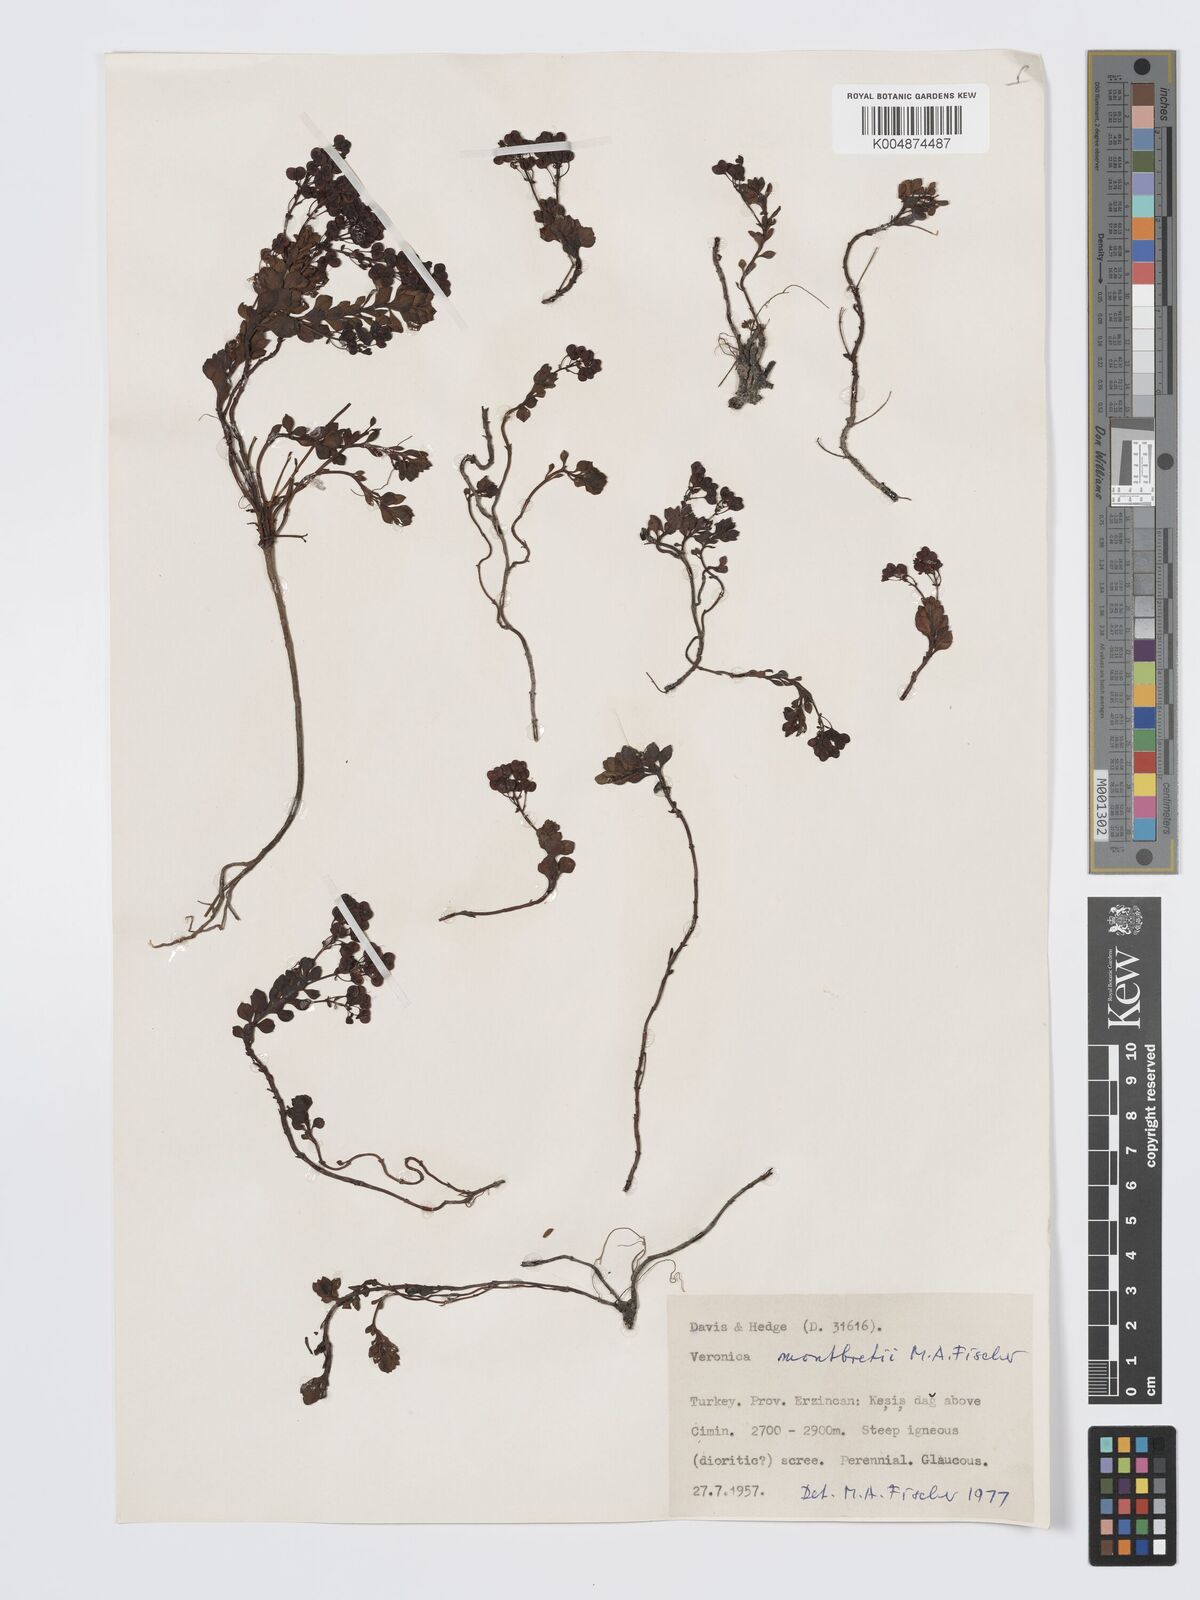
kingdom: Plantae
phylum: Tracheophyta
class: Magnoliopsida
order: Lamiales
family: Plantaginaceae
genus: Veronica
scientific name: Veronica montbretii
